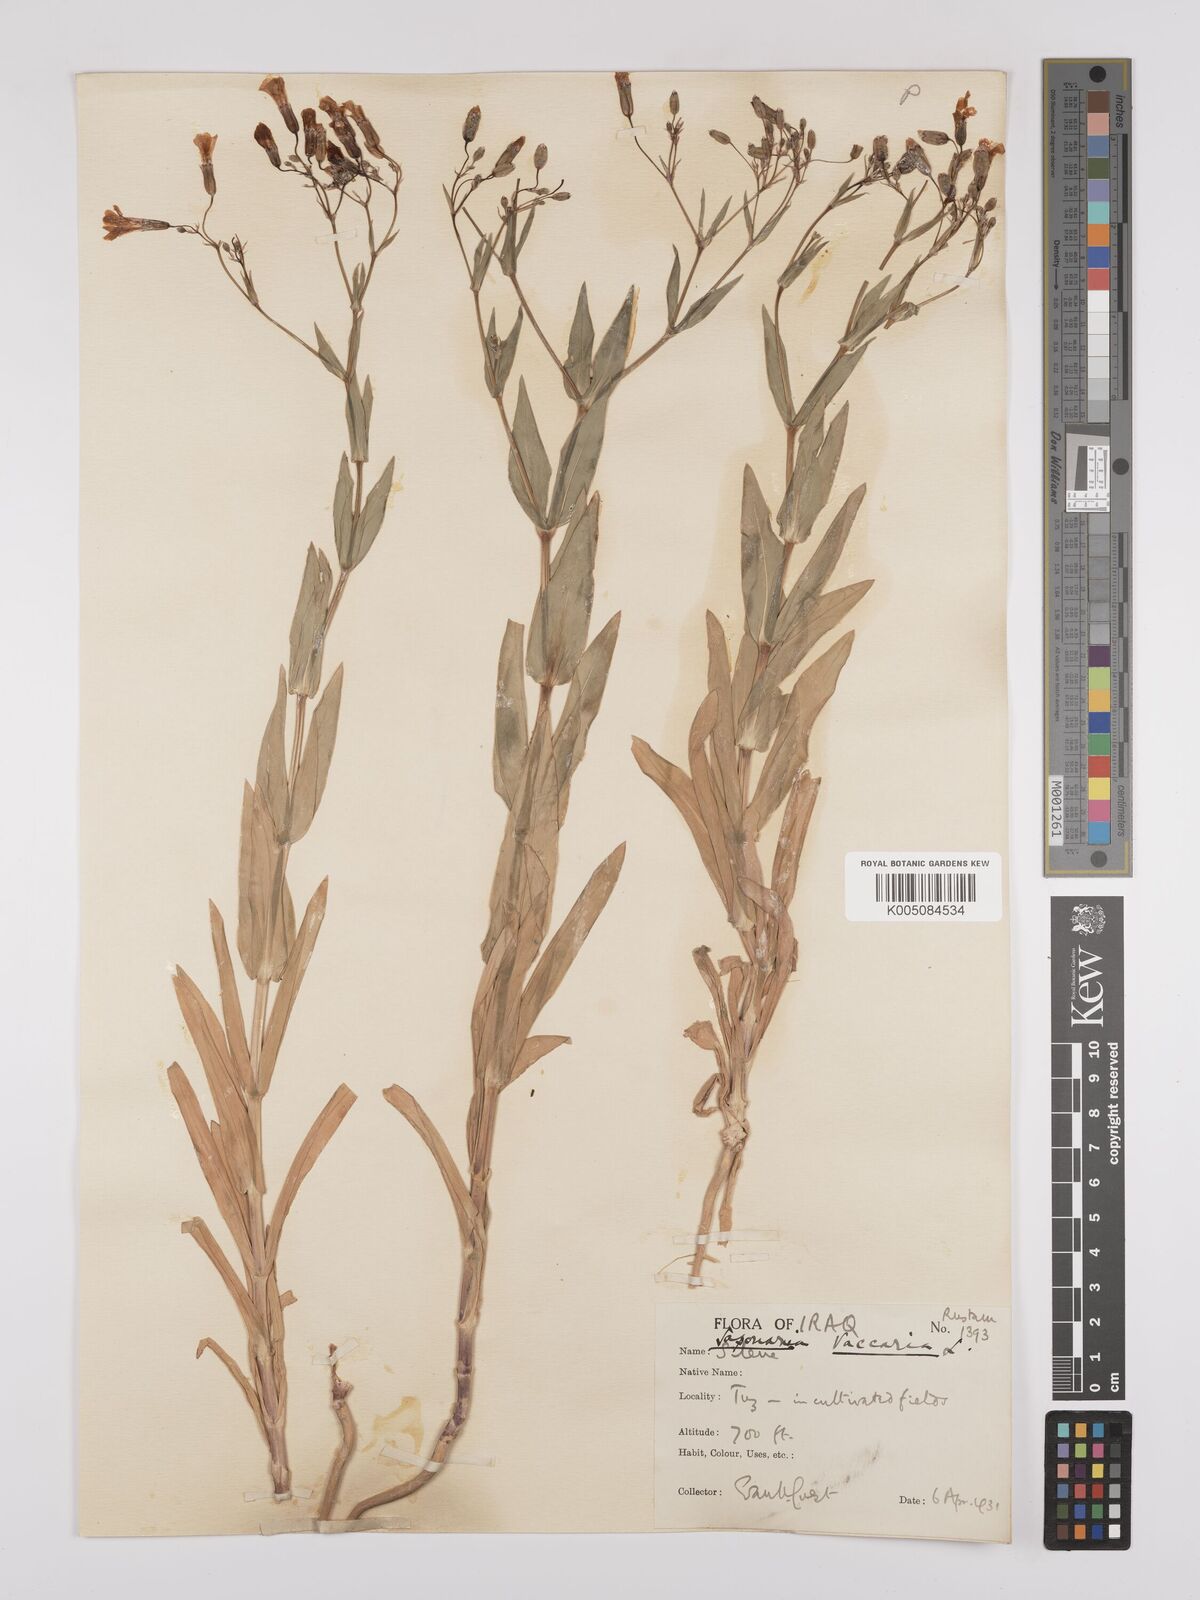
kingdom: Plantae
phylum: Tracheophyta
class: Magnoliopsida
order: Caryophyllales
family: Caryophyllaceae
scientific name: Caryophyllaceae
